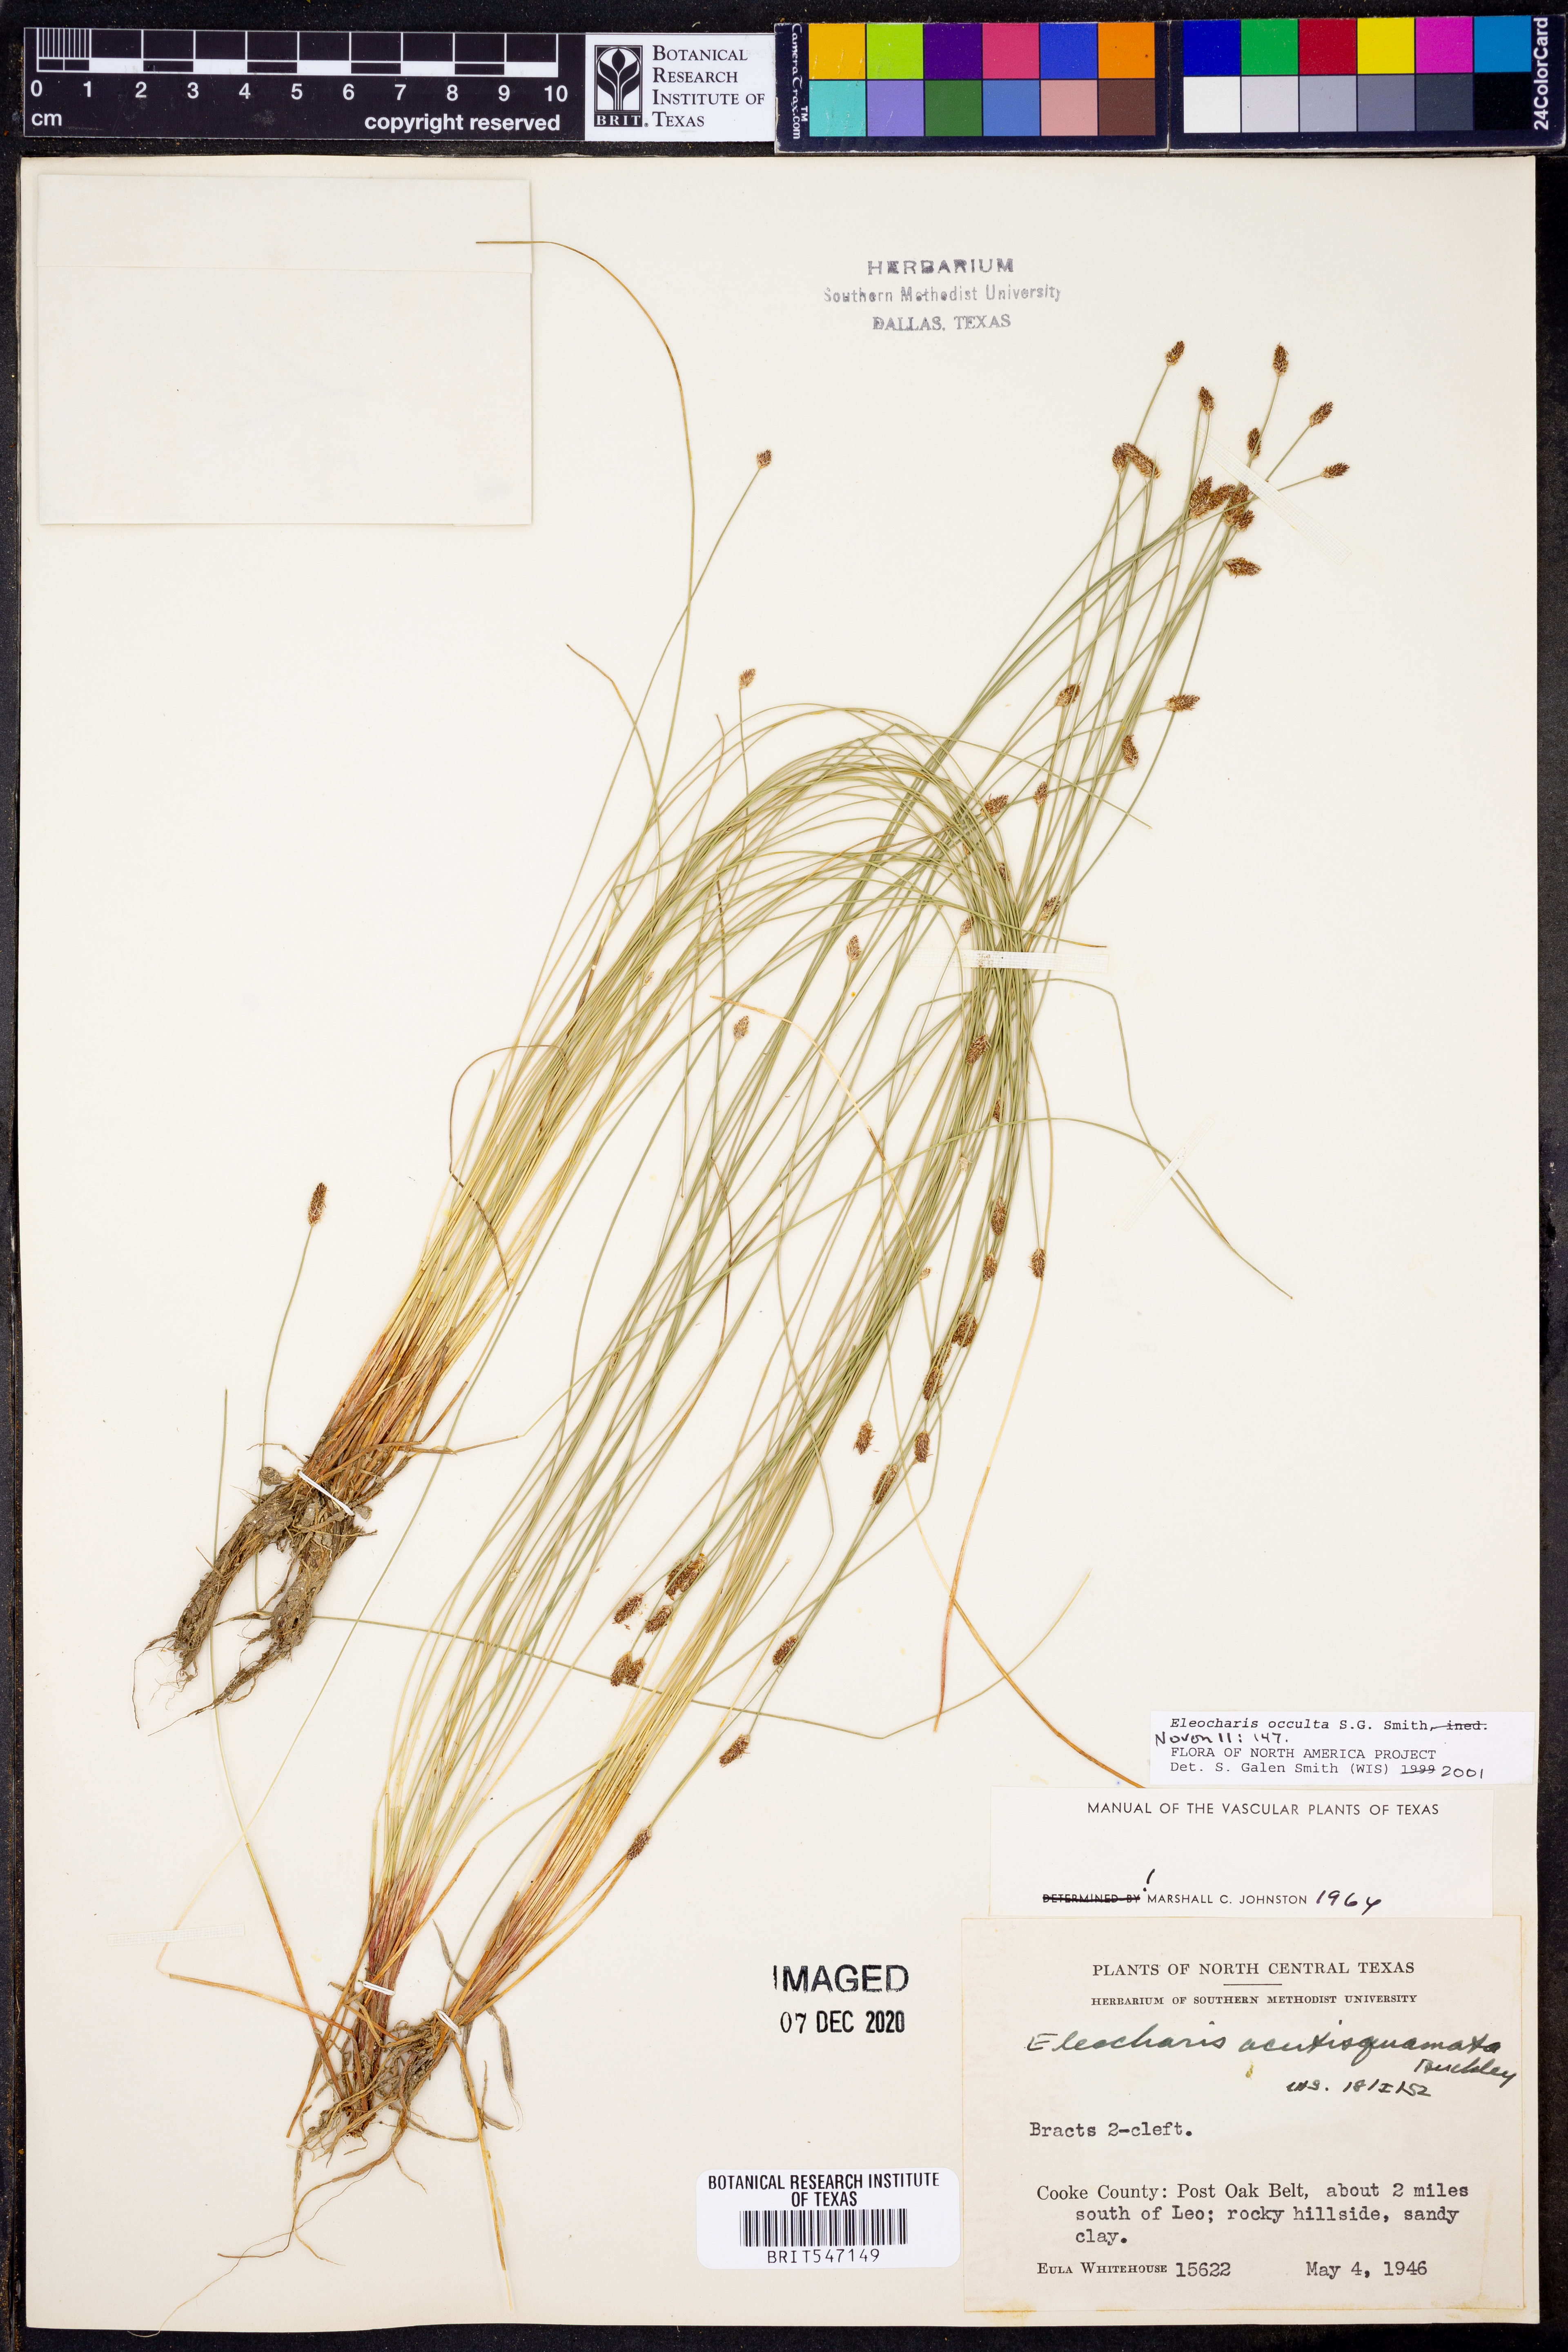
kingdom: Plantae
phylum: Tracheophyta
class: Liliopsida
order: Poales
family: Cyperaceae
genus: Eleocharis
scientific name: Eleocharis occulta
